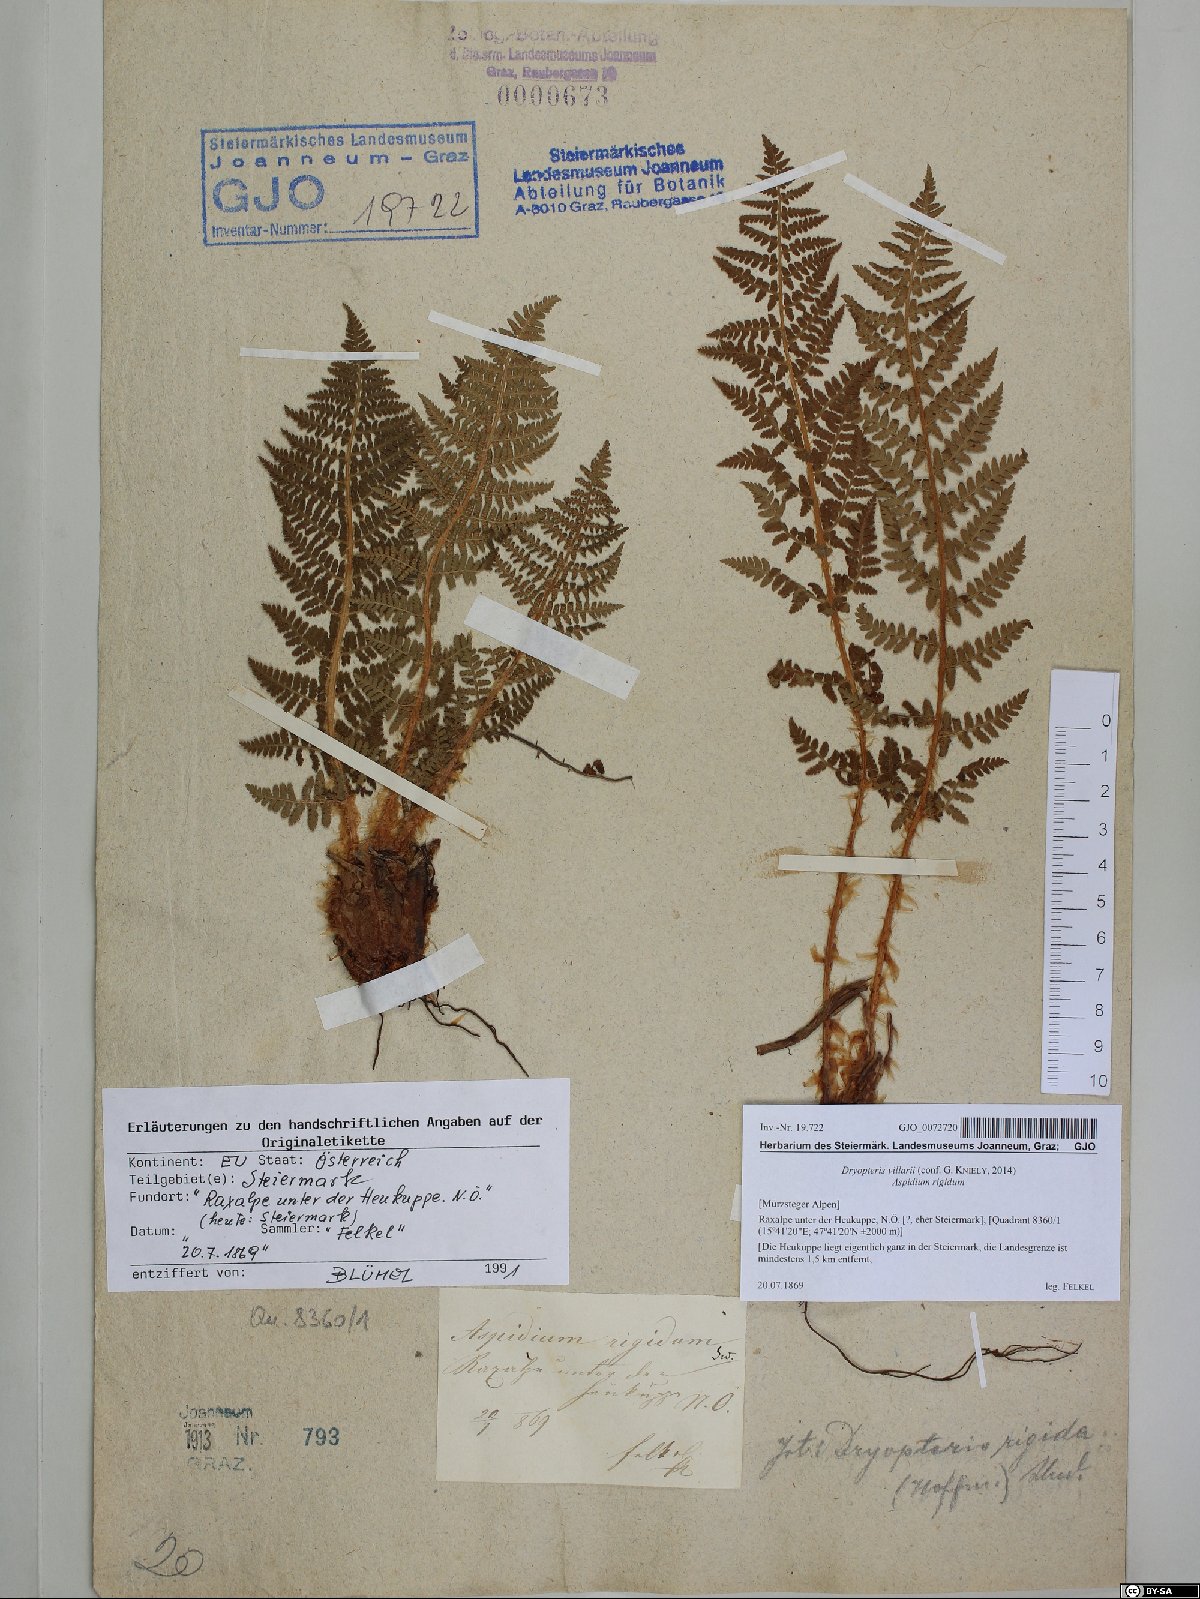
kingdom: Plantae
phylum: Tracheophyta
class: Polypodiopsida
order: Polypodiales
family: Dryopteridaceae
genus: Dryopteris
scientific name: Dryopteris villarii
